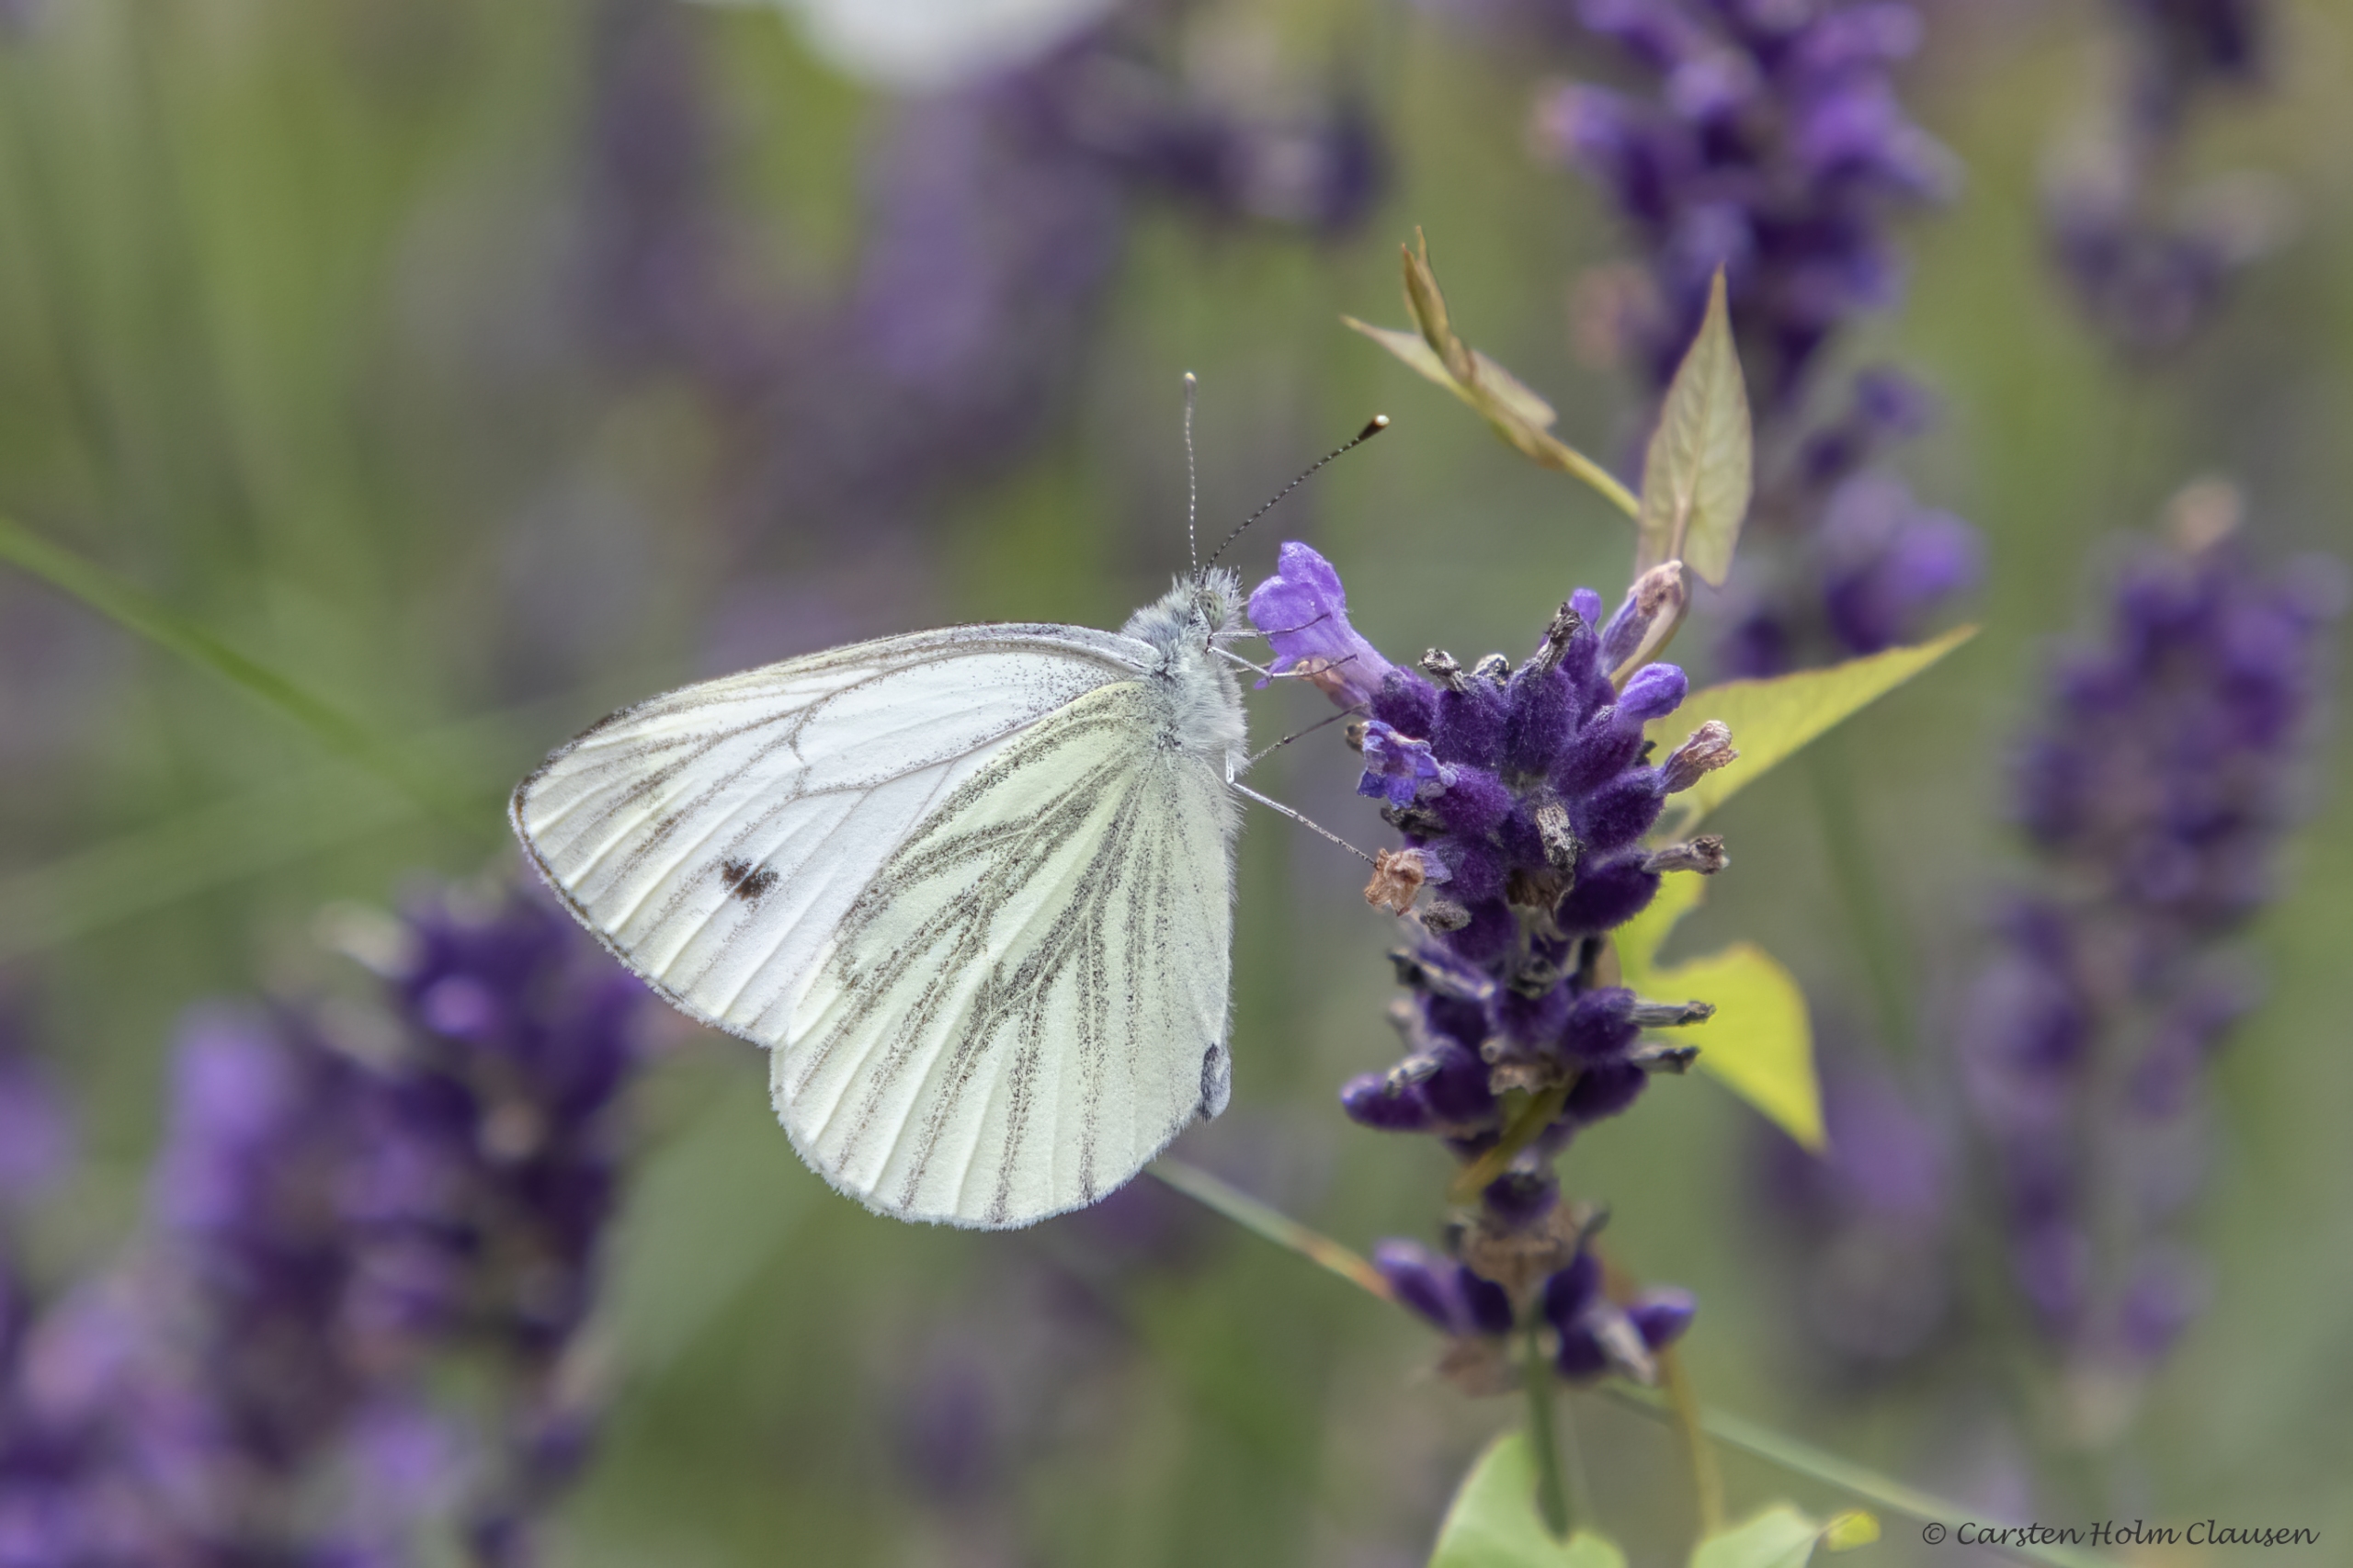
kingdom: Animalia
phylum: Arthropoda
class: Insecta
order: Lepidoptera
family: Pieridae
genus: Pieris
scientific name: Pieris napi
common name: Grønåret kålsommerfugl
